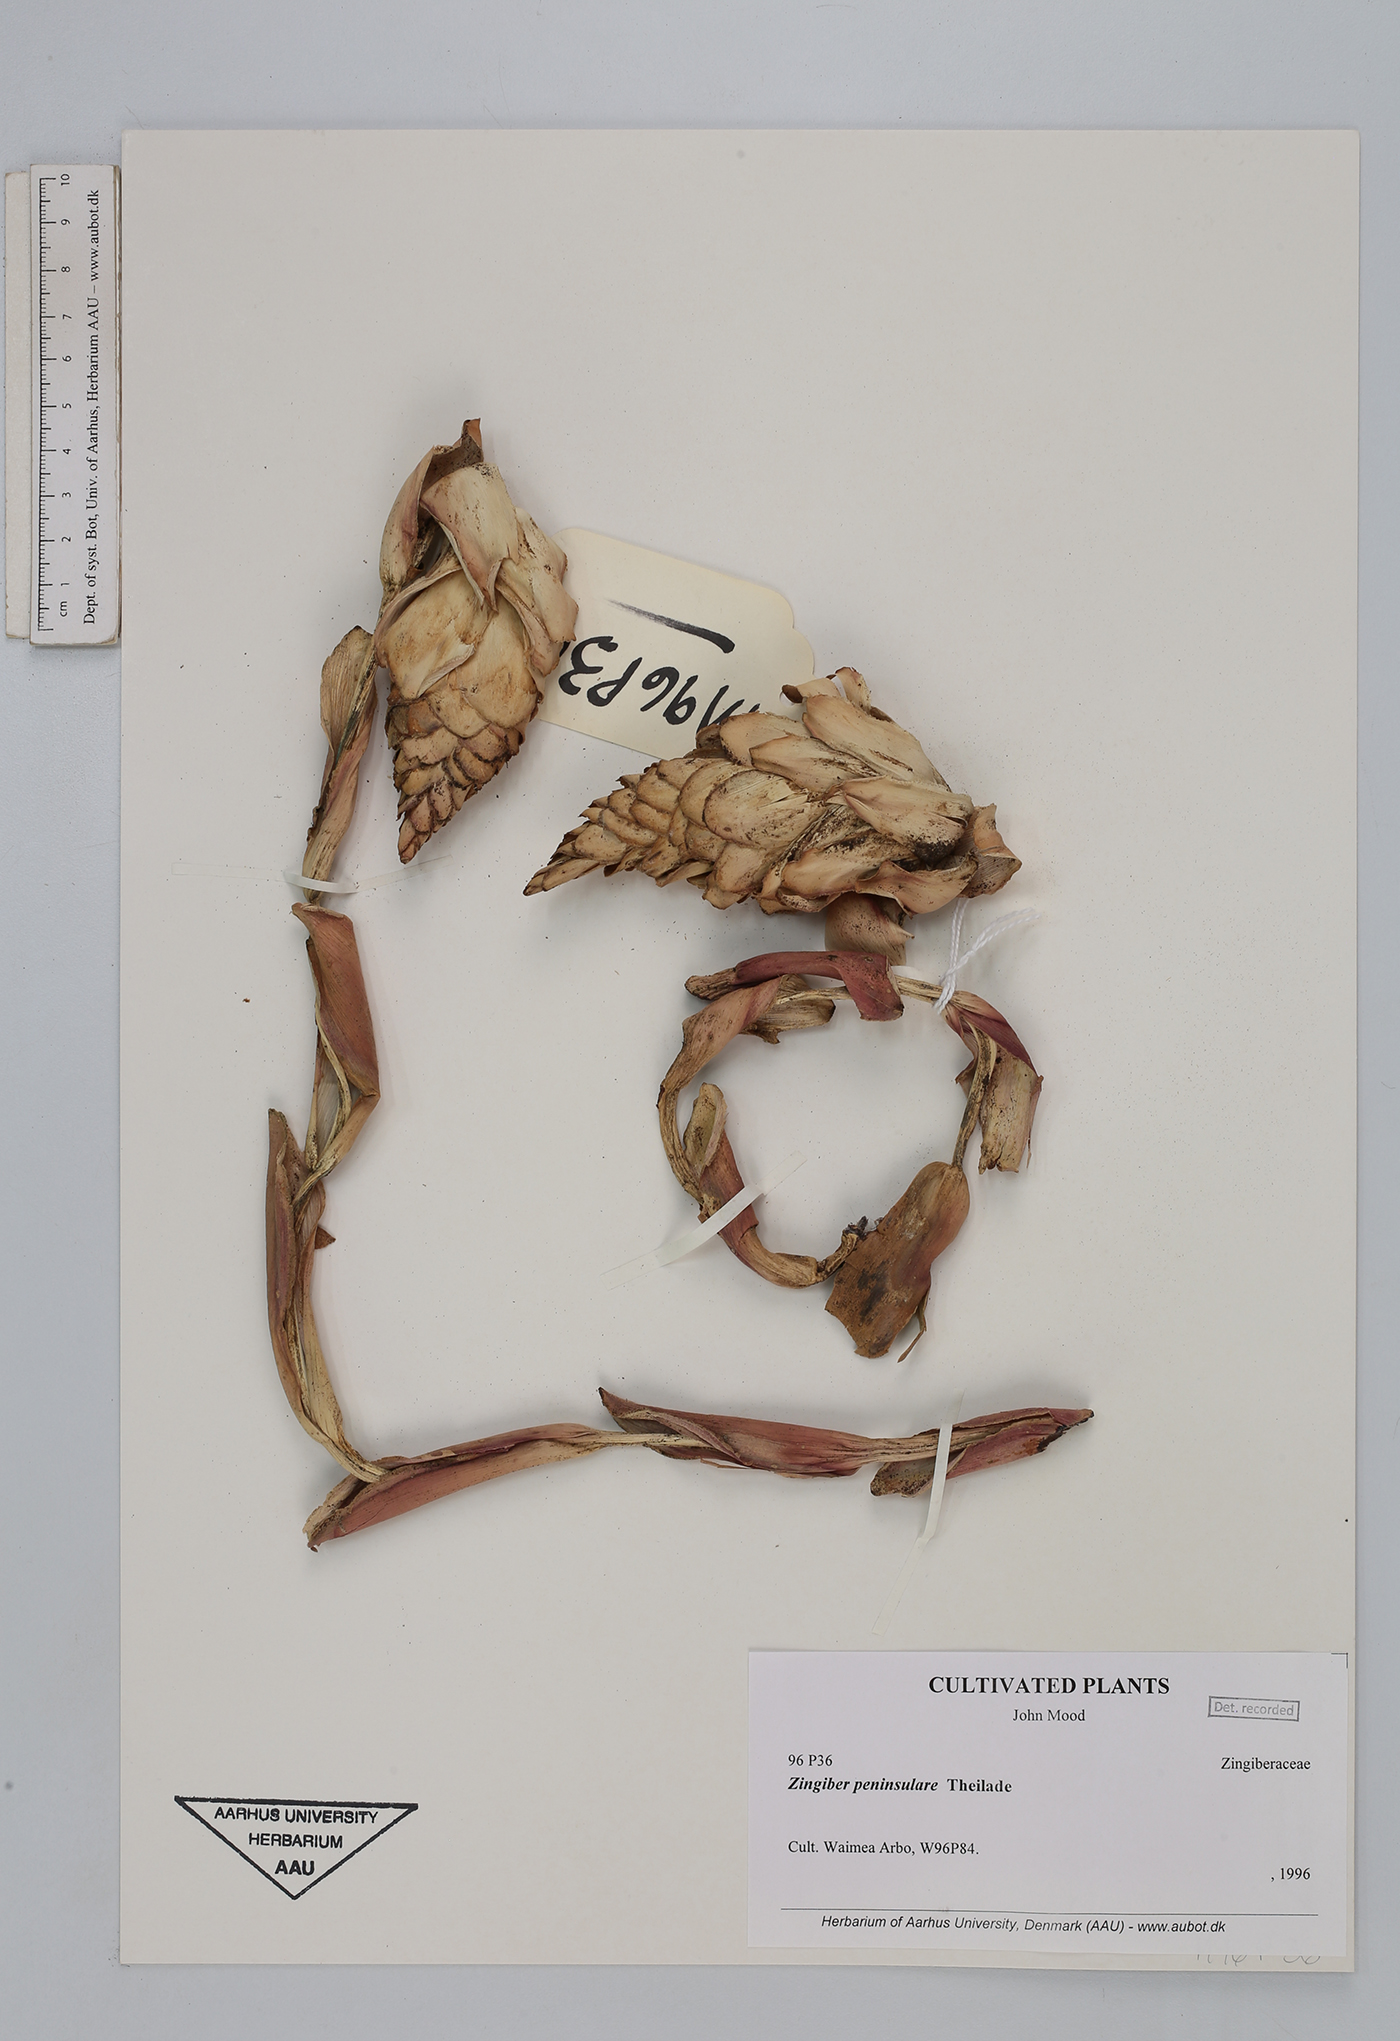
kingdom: Plantae
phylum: Tracheophyta
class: Liliopsida
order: Zingiberales
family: Zingiberaceae
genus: Zingiber
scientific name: Zingiber montanum
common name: Bengal ginger
